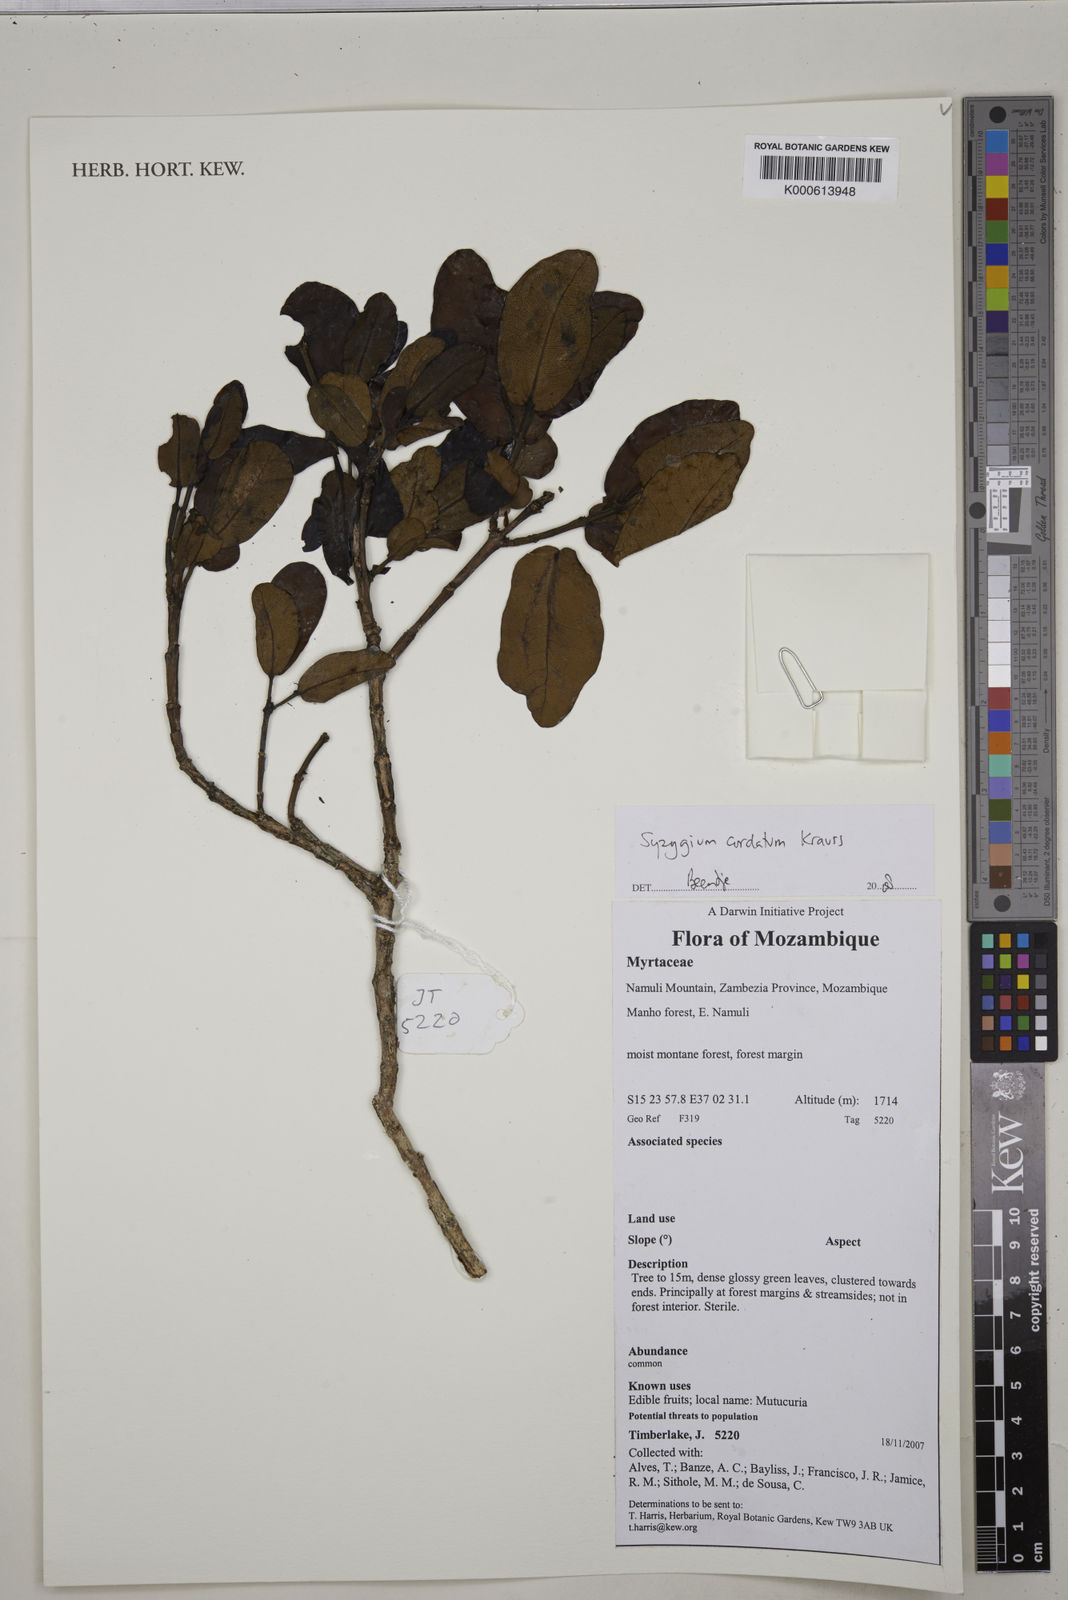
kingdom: Plantae
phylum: Tracheophyta
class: Magnoliopsida
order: Myrtales
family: Myrtaceae
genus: Syzygium
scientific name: Syzygium cordatum
